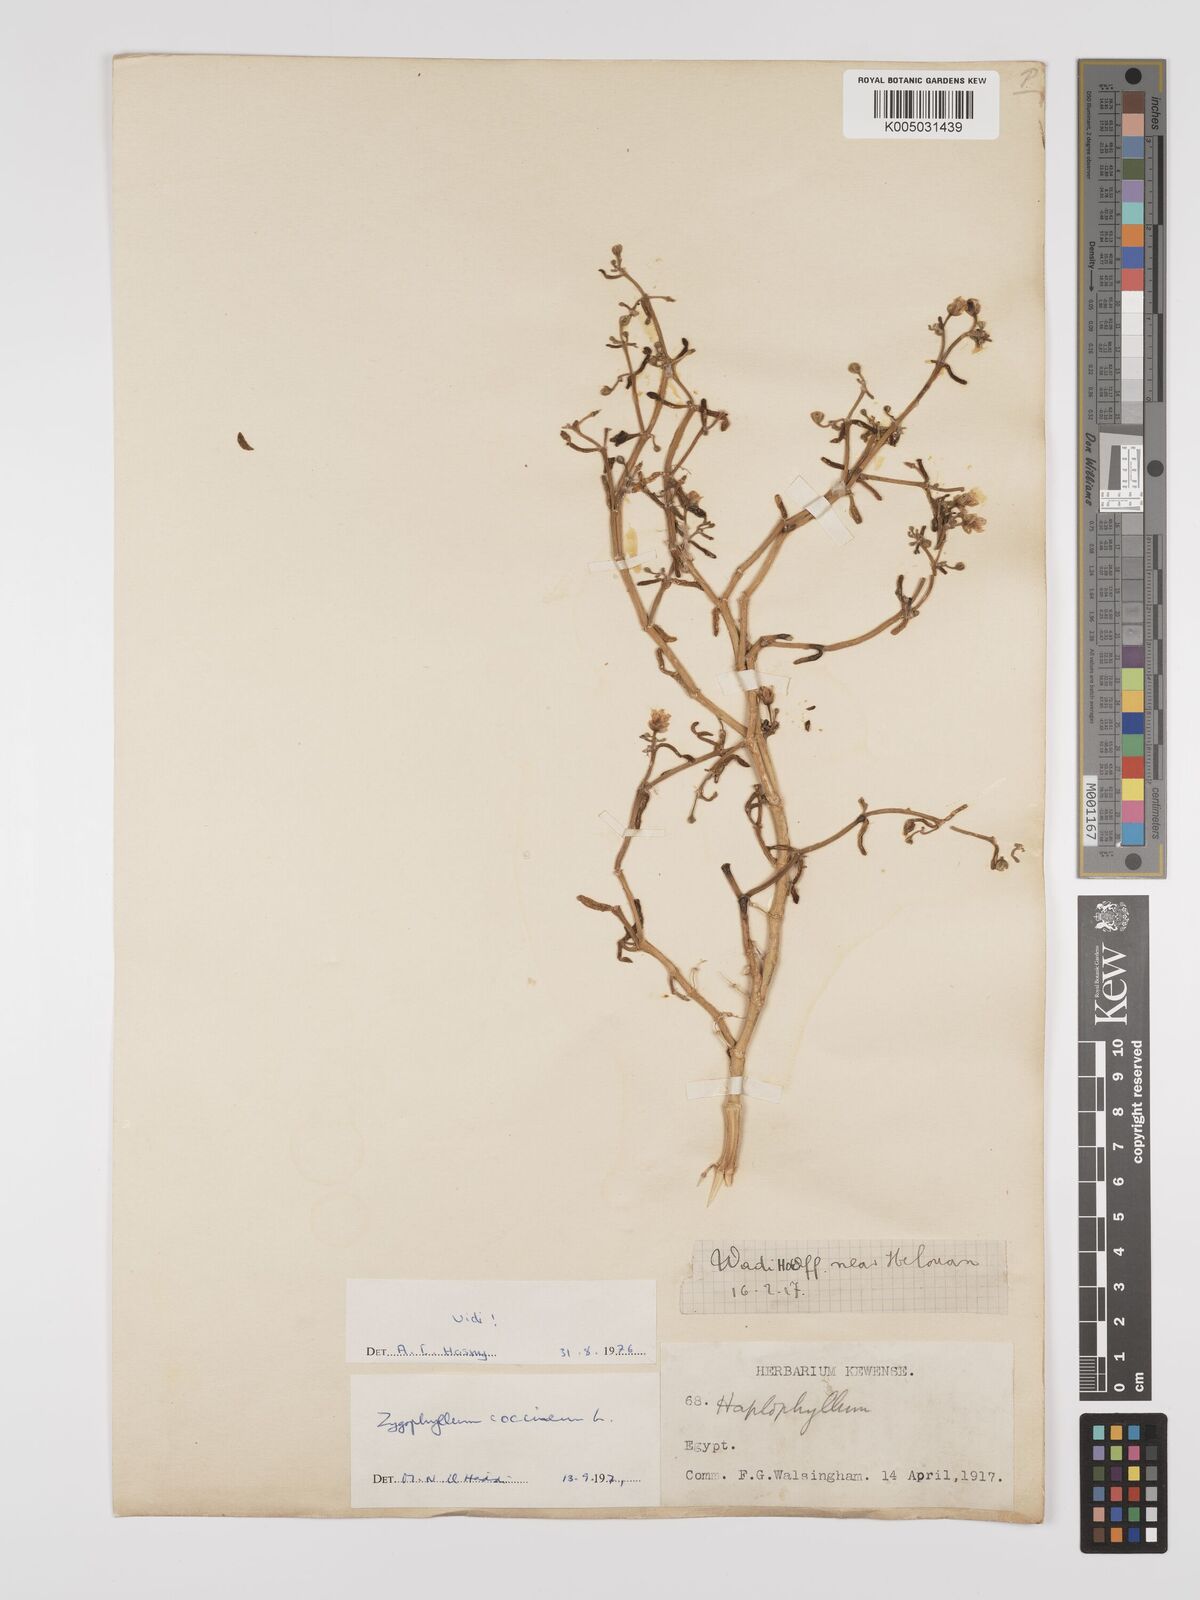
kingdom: Plantae
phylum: Tracheophyta
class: Magnoliopsida
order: Zygophyllales
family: Zygophyllaceae
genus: Zygophyllum
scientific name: Zygophyllum
